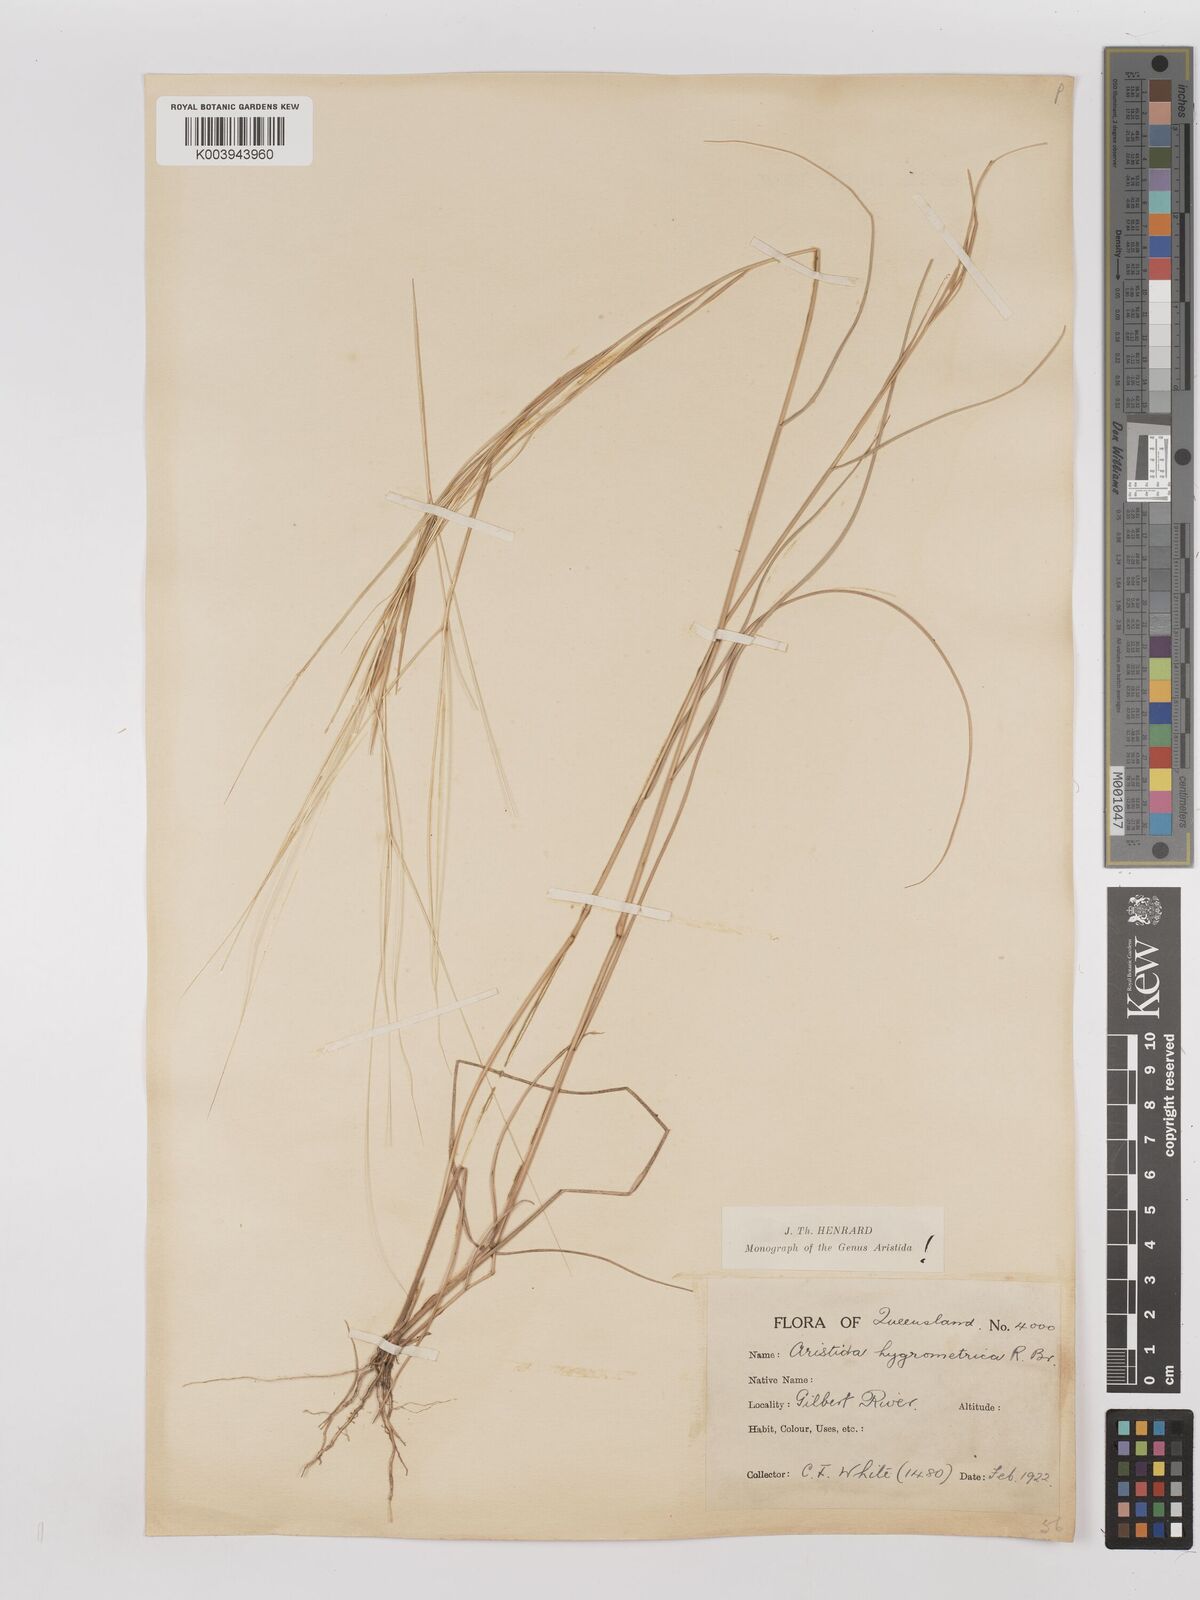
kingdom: Plantae
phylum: Tracheophyta
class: Liliopsida
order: Poales
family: Poaceae
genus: Aristida
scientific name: Aristida hygrometrica
